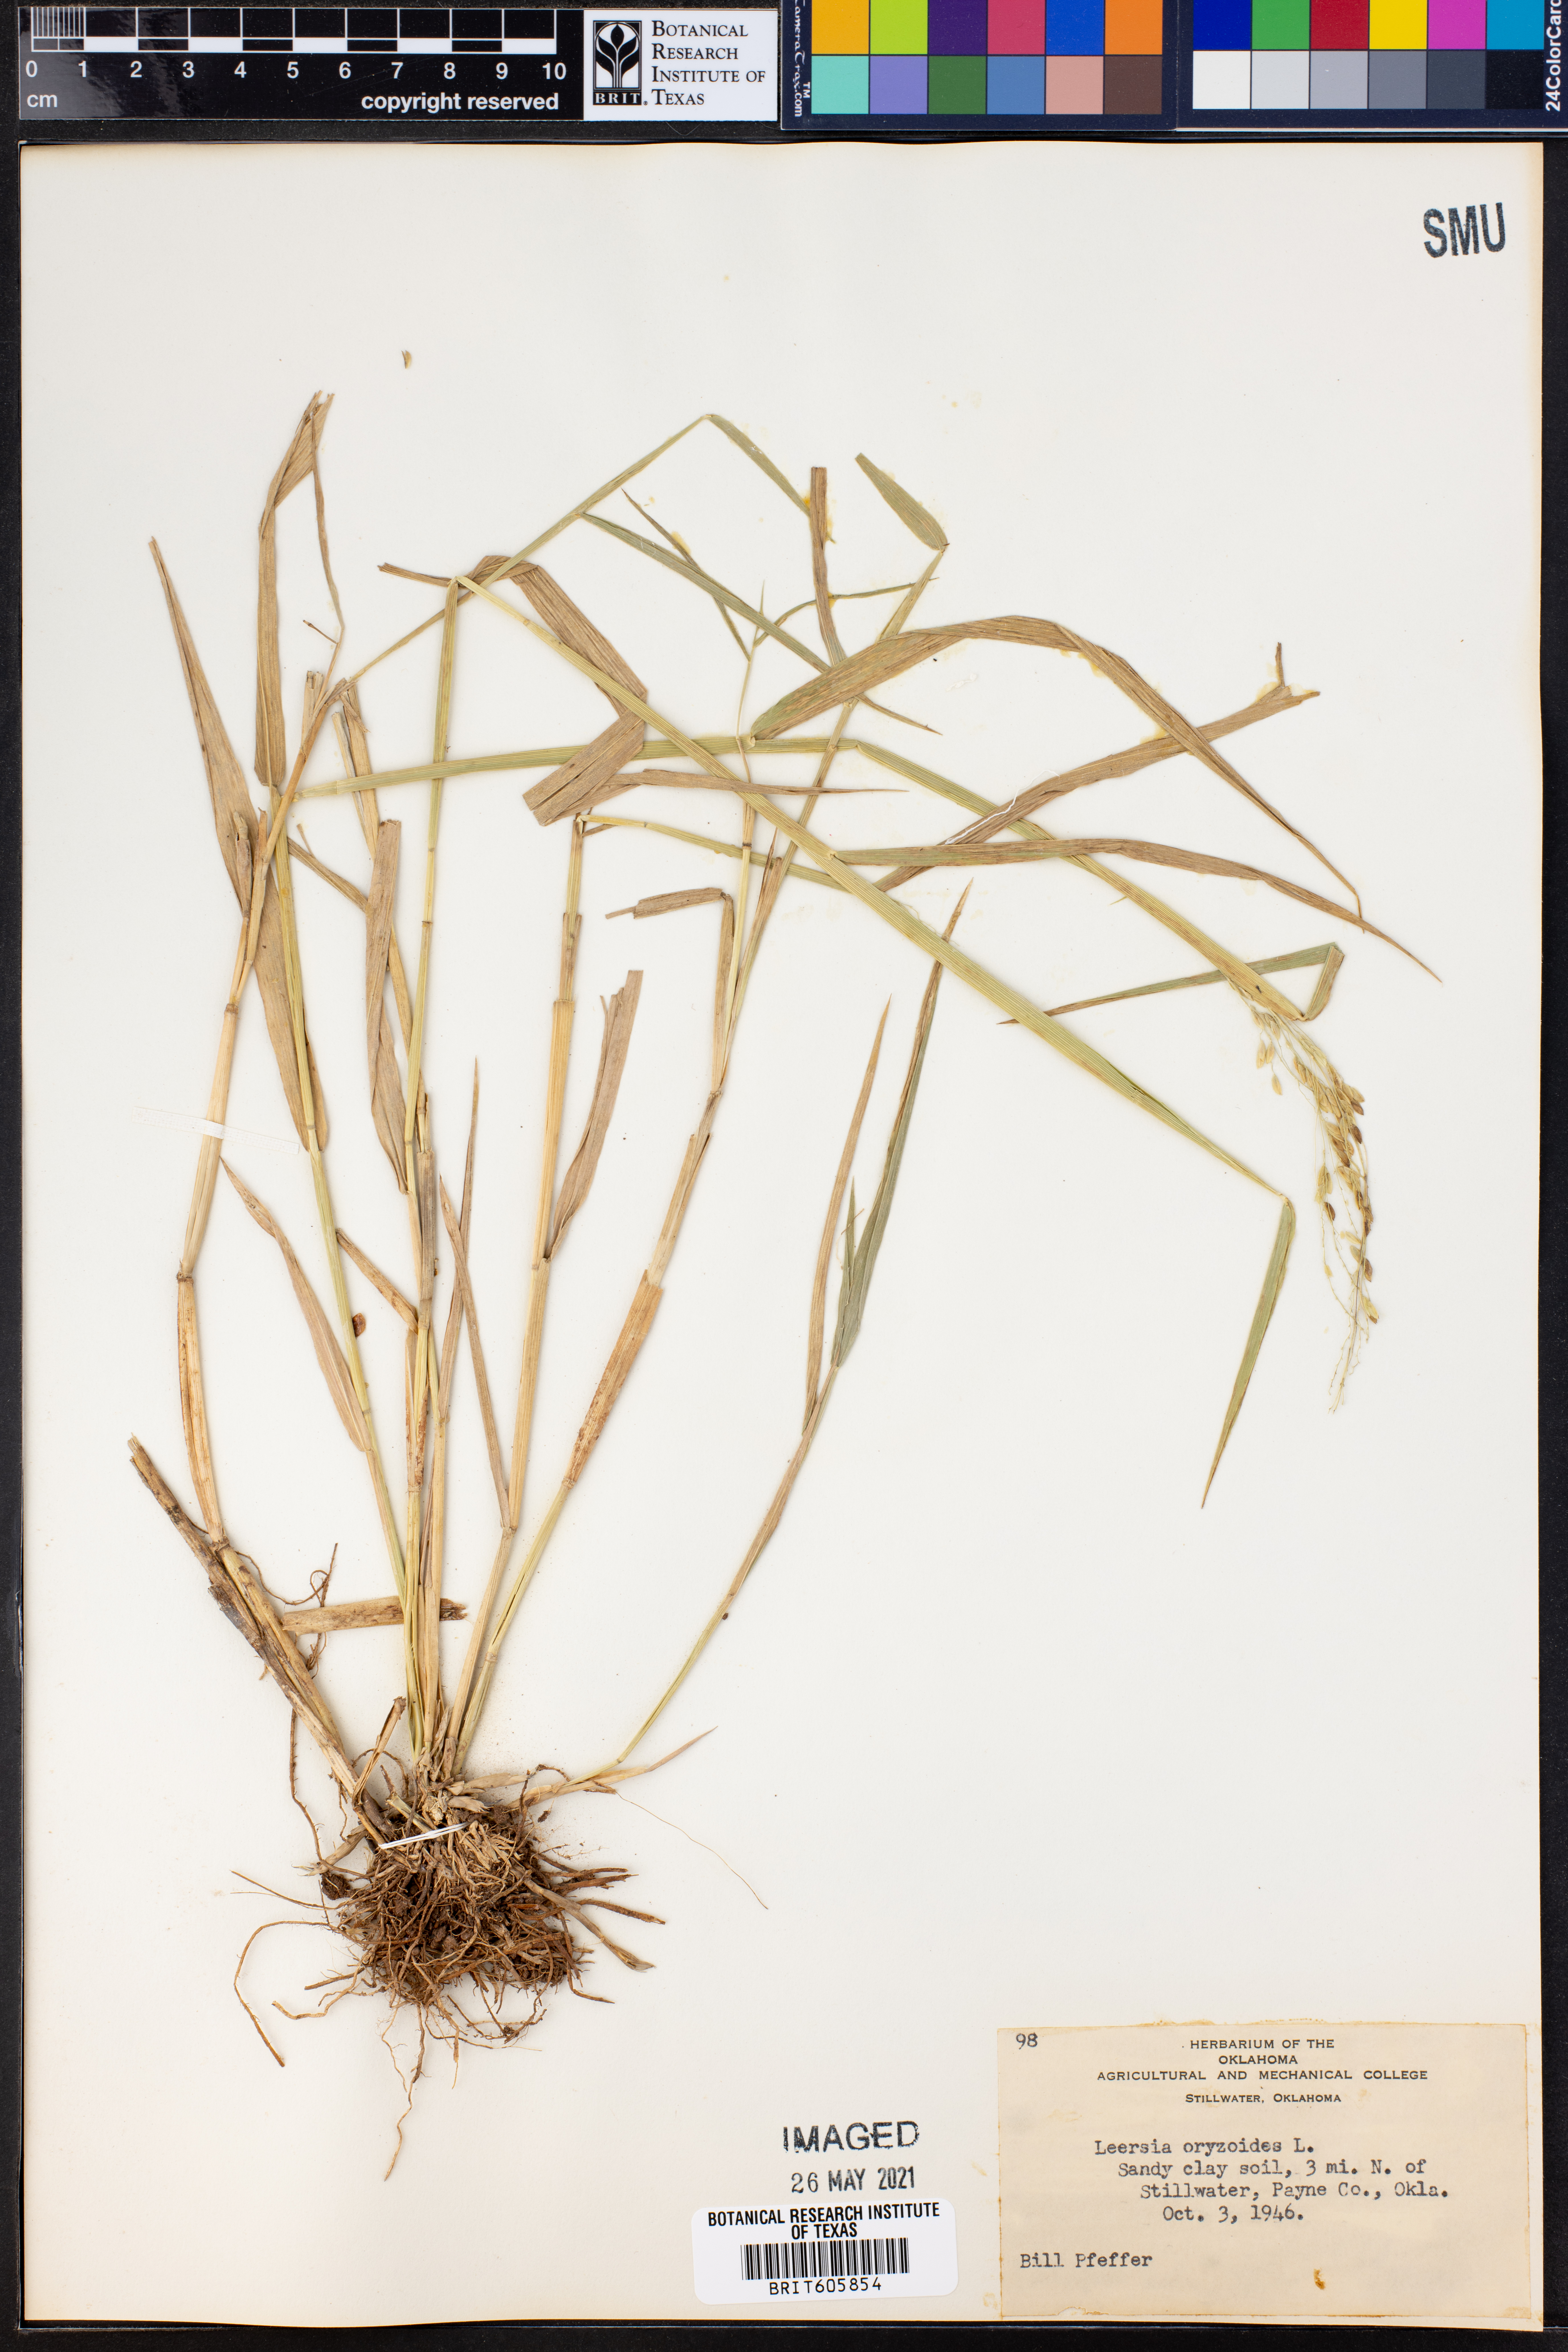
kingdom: Plantae
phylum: Tracheophyta
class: Liliopsida
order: Poales
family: Poaceae
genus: Leersia
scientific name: Leersia oryzoides
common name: Cut-grass
